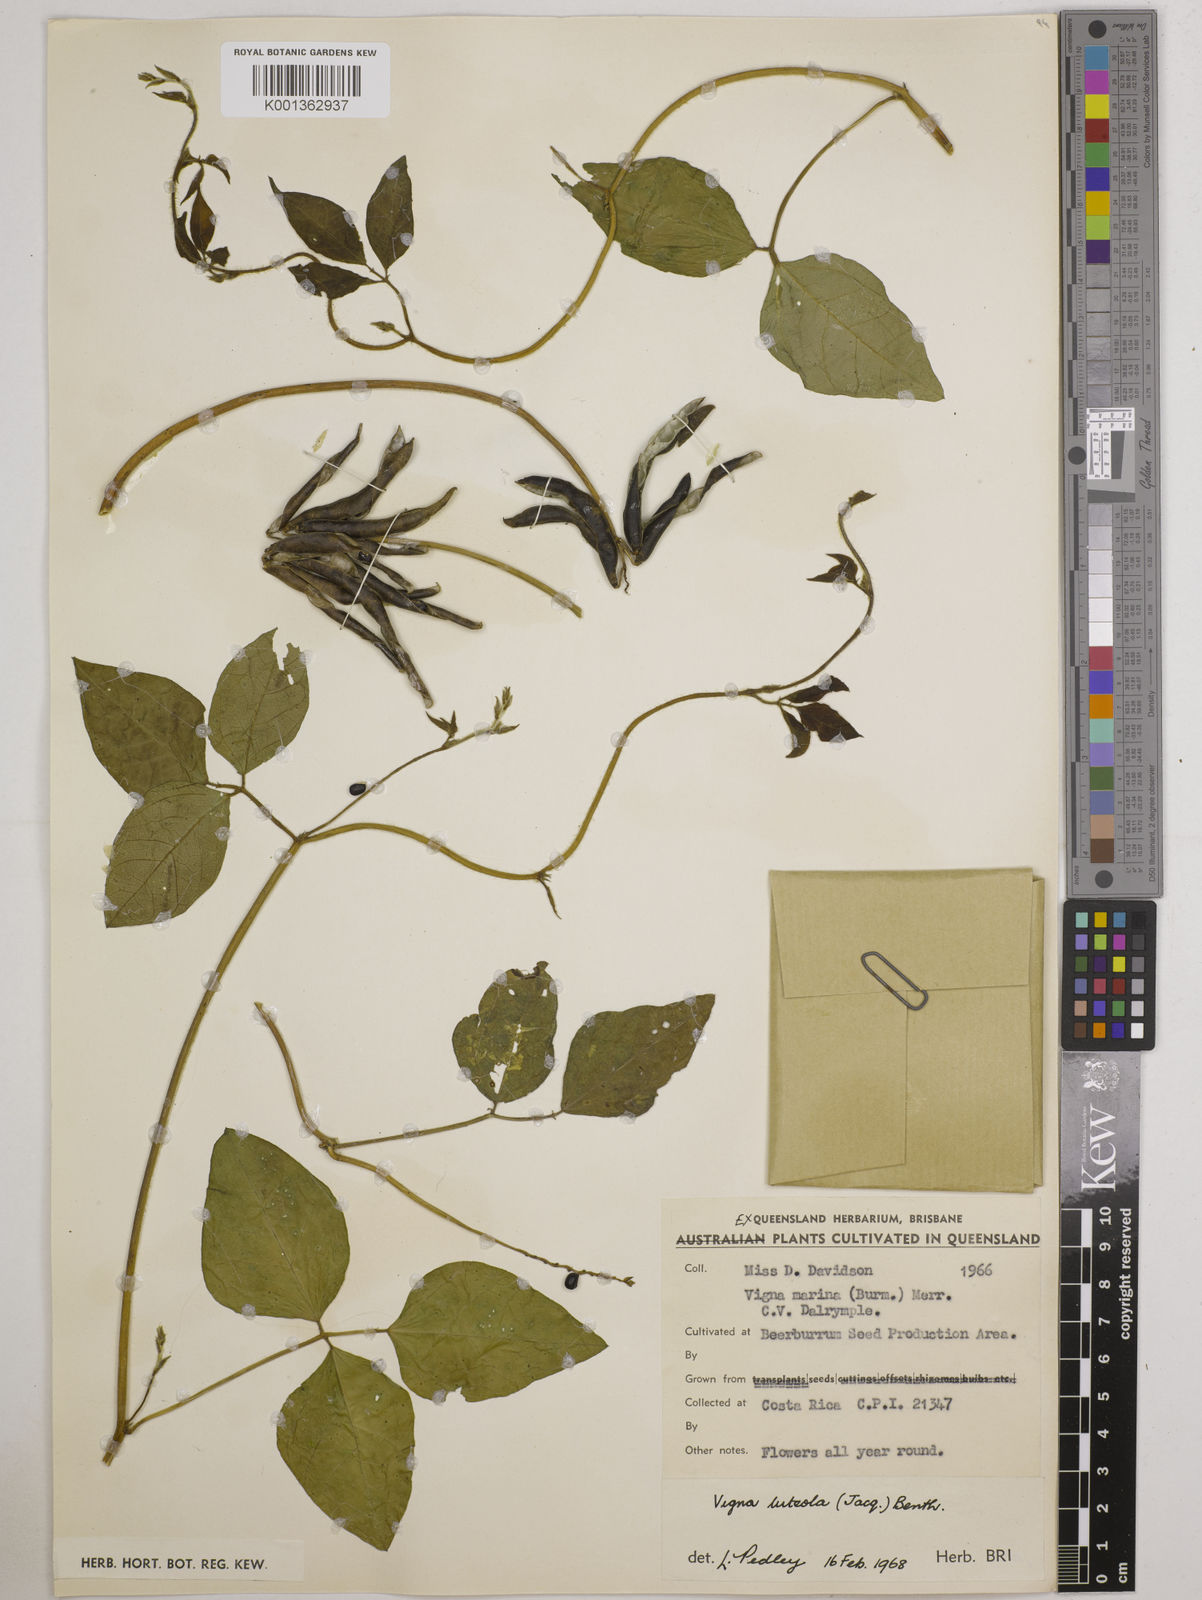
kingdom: Plantae
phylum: Tracheophyta
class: Magnoliopsida
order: Fabales
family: Fabaceae
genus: Vigna
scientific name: Vigna luteola
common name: Hairypod cowpea
